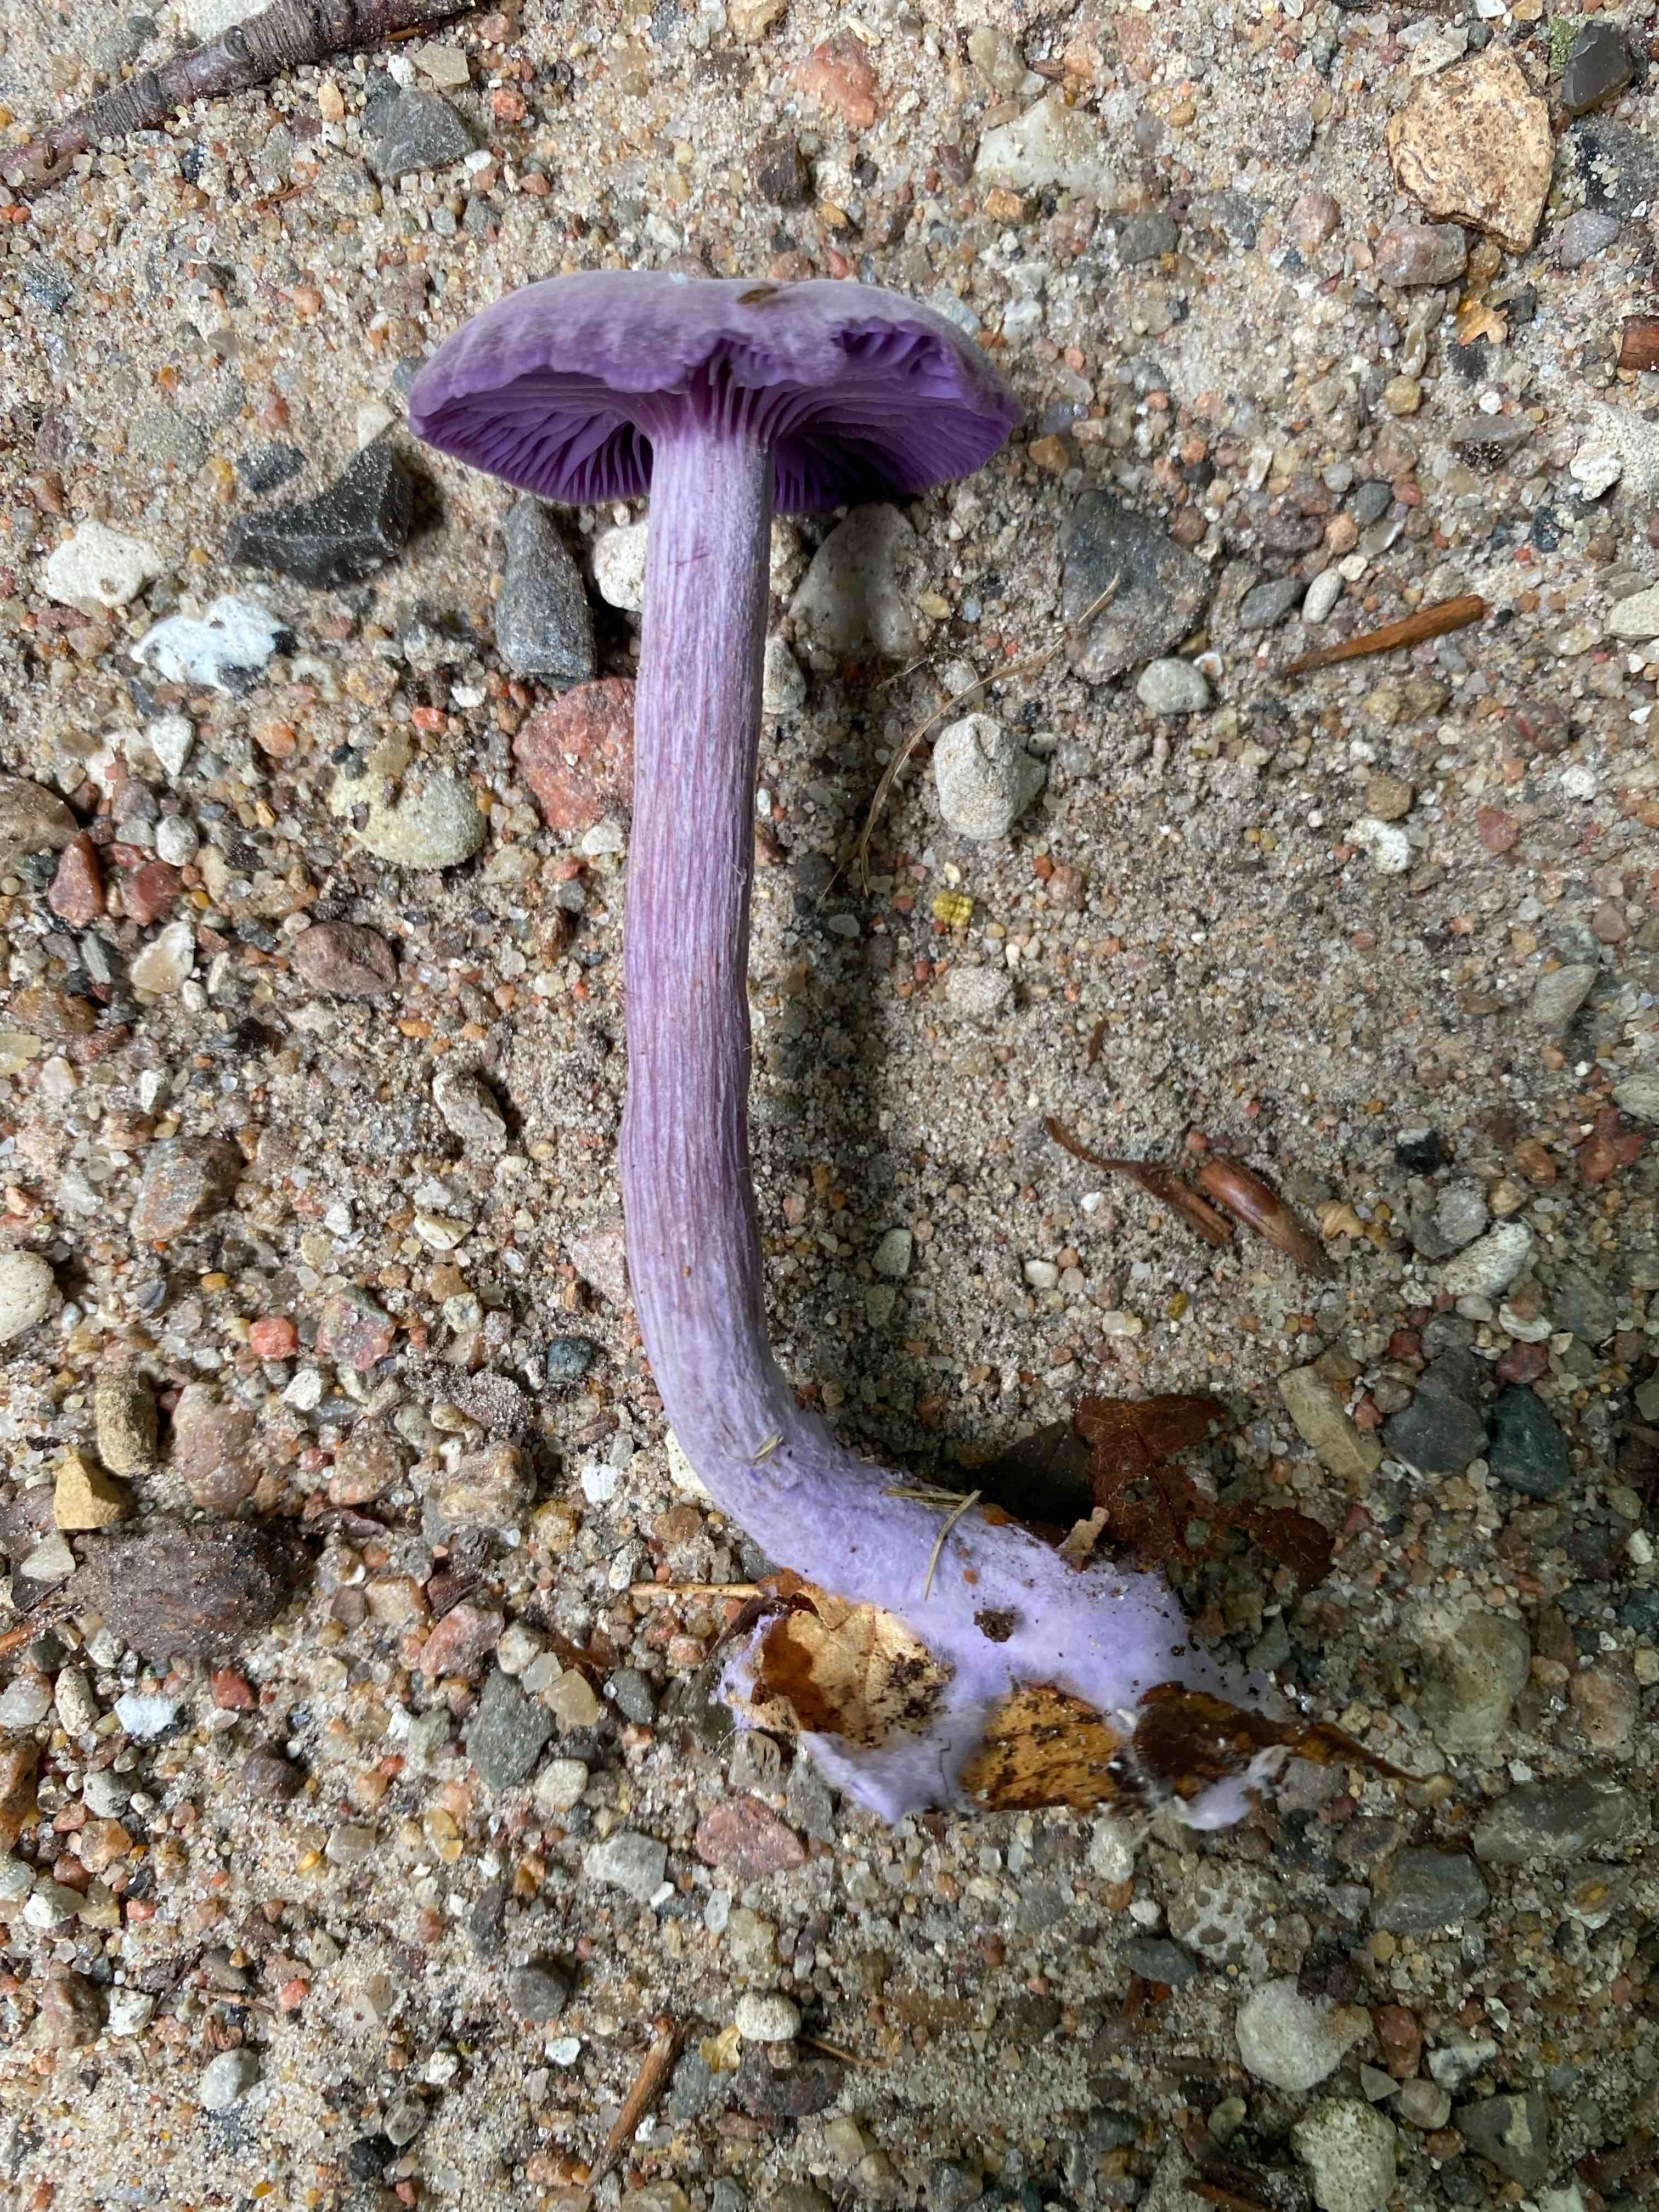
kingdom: Fungi
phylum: Basidiomycota
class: Agaricomycetes
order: Agaricales
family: Hydnangiaceae
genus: Laccaria
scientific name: Laccaria amethystina
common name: violet ametysthat
